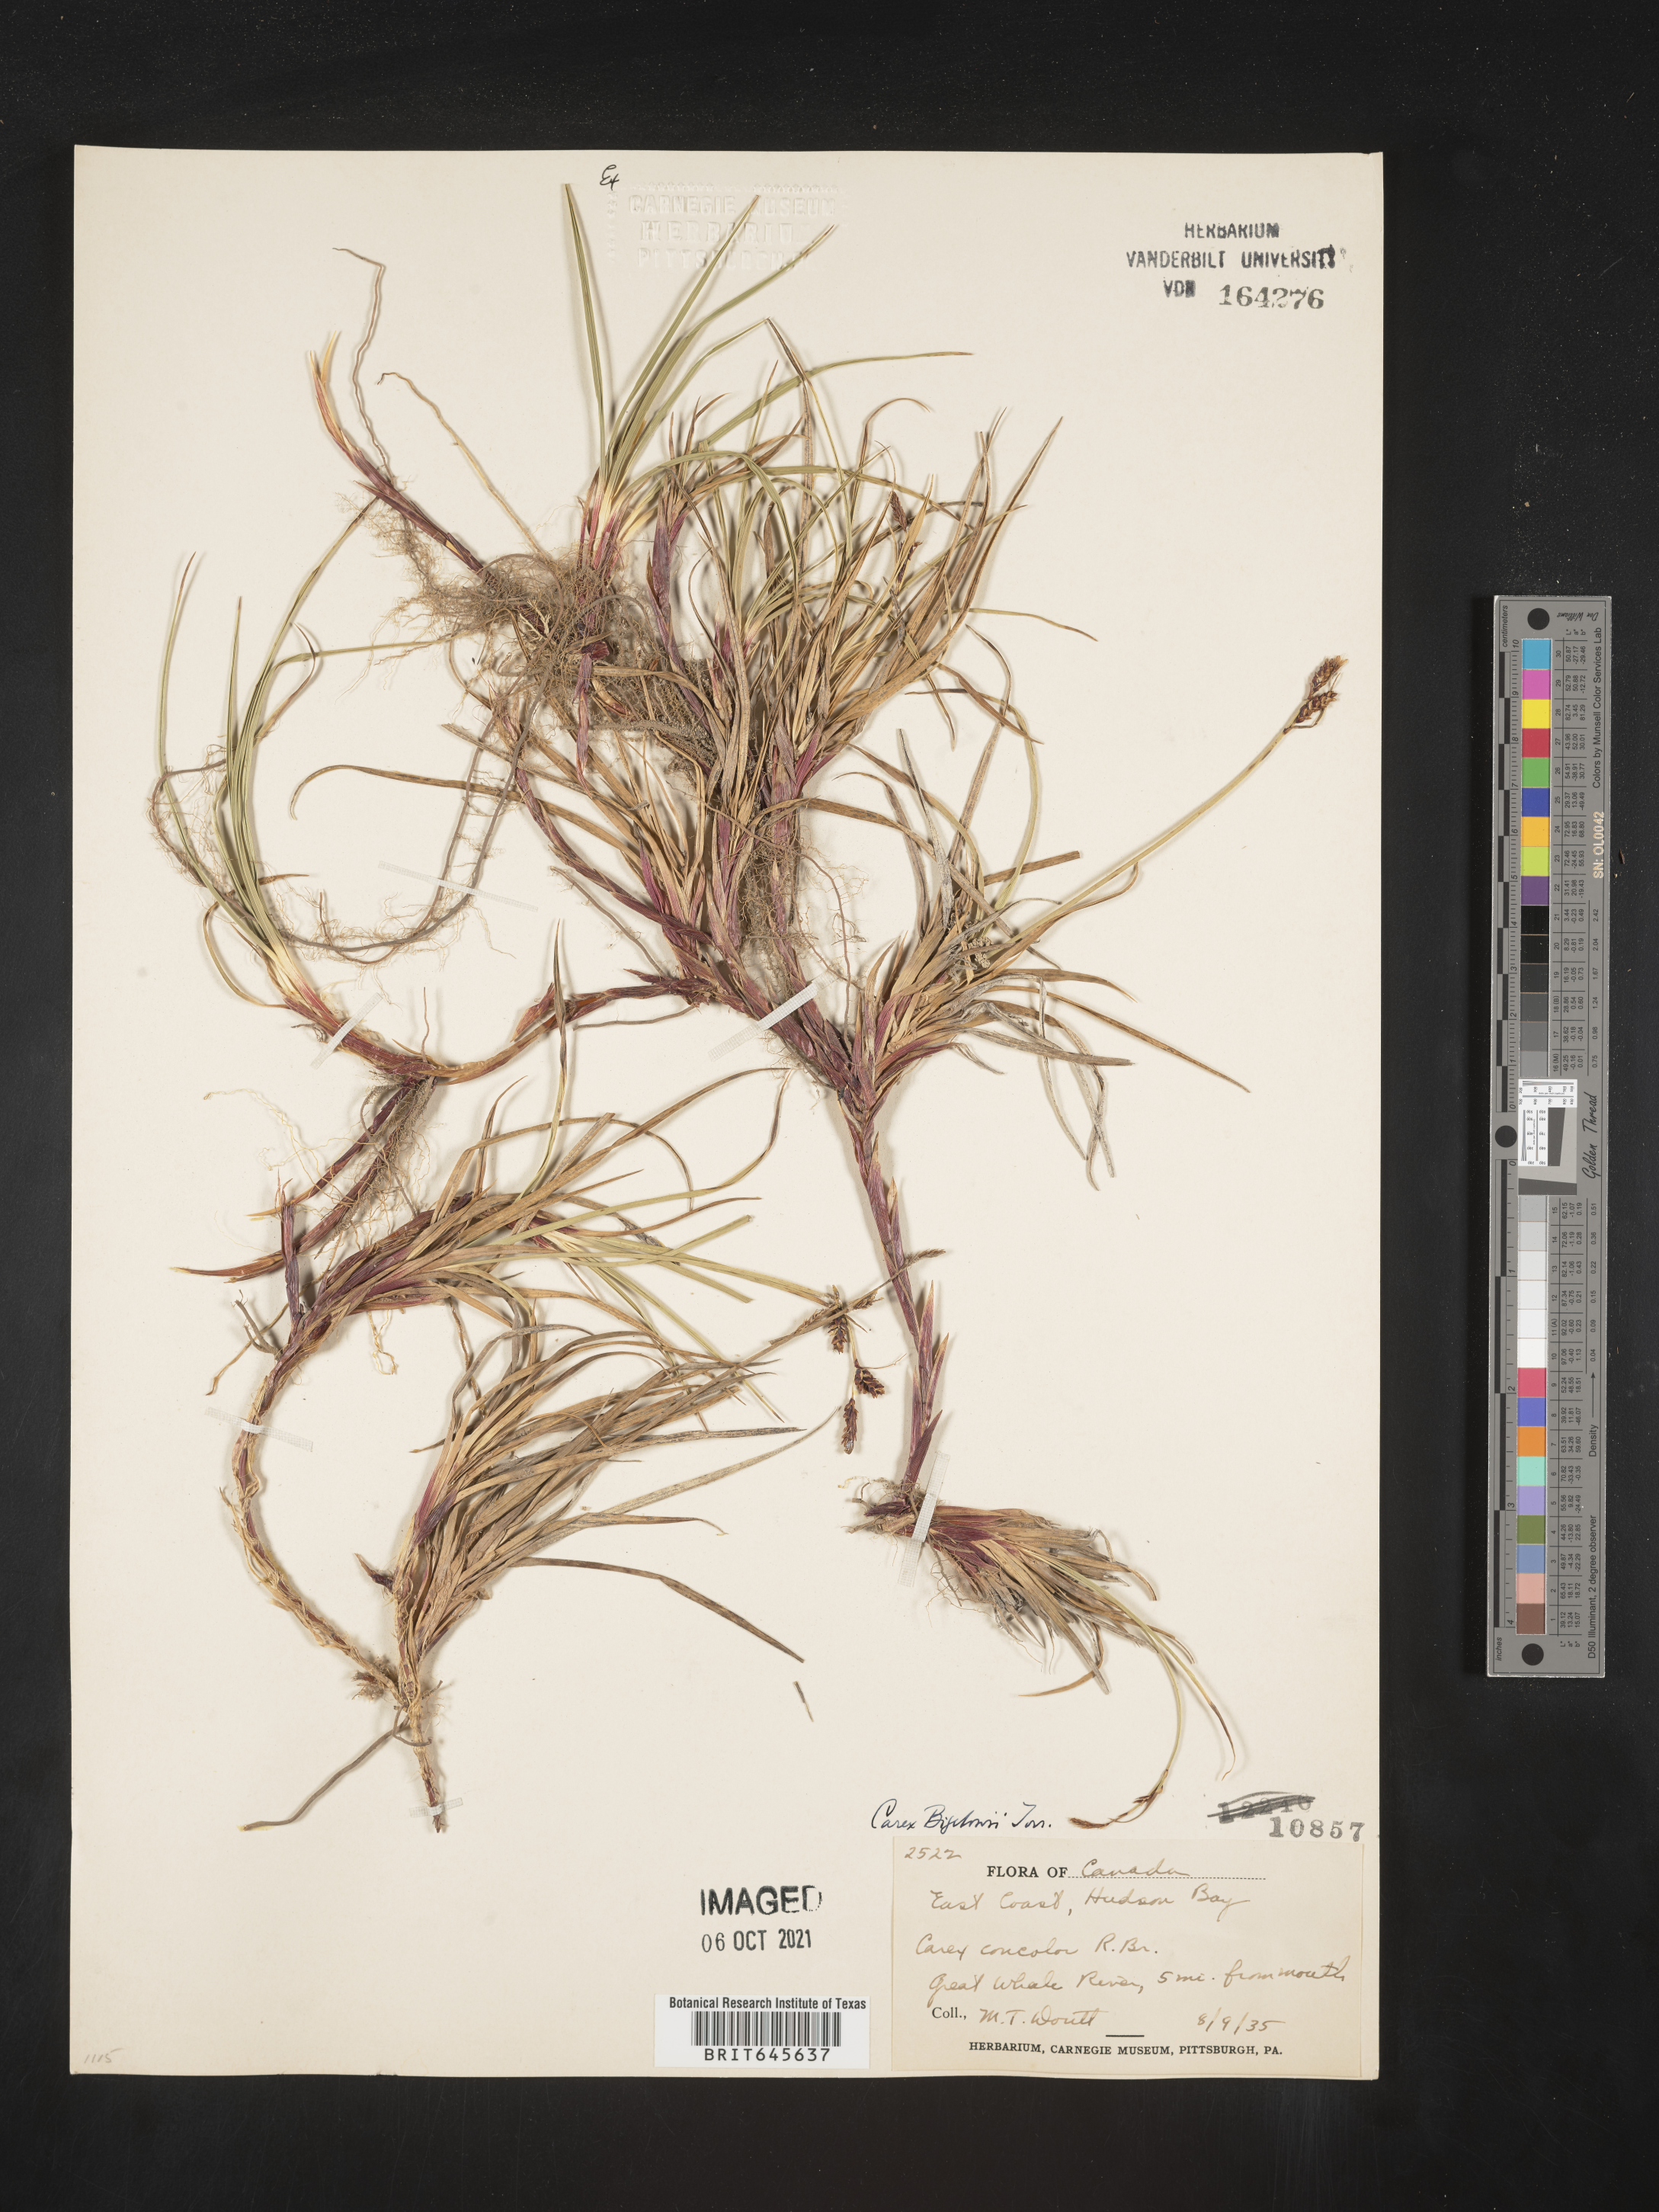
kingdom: Plantae
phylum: Tracheophyta
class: Liliopsida
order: Poales
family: Cyperaceae
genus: Carex
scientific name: Carex bigelowii
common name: Stiff sedge
